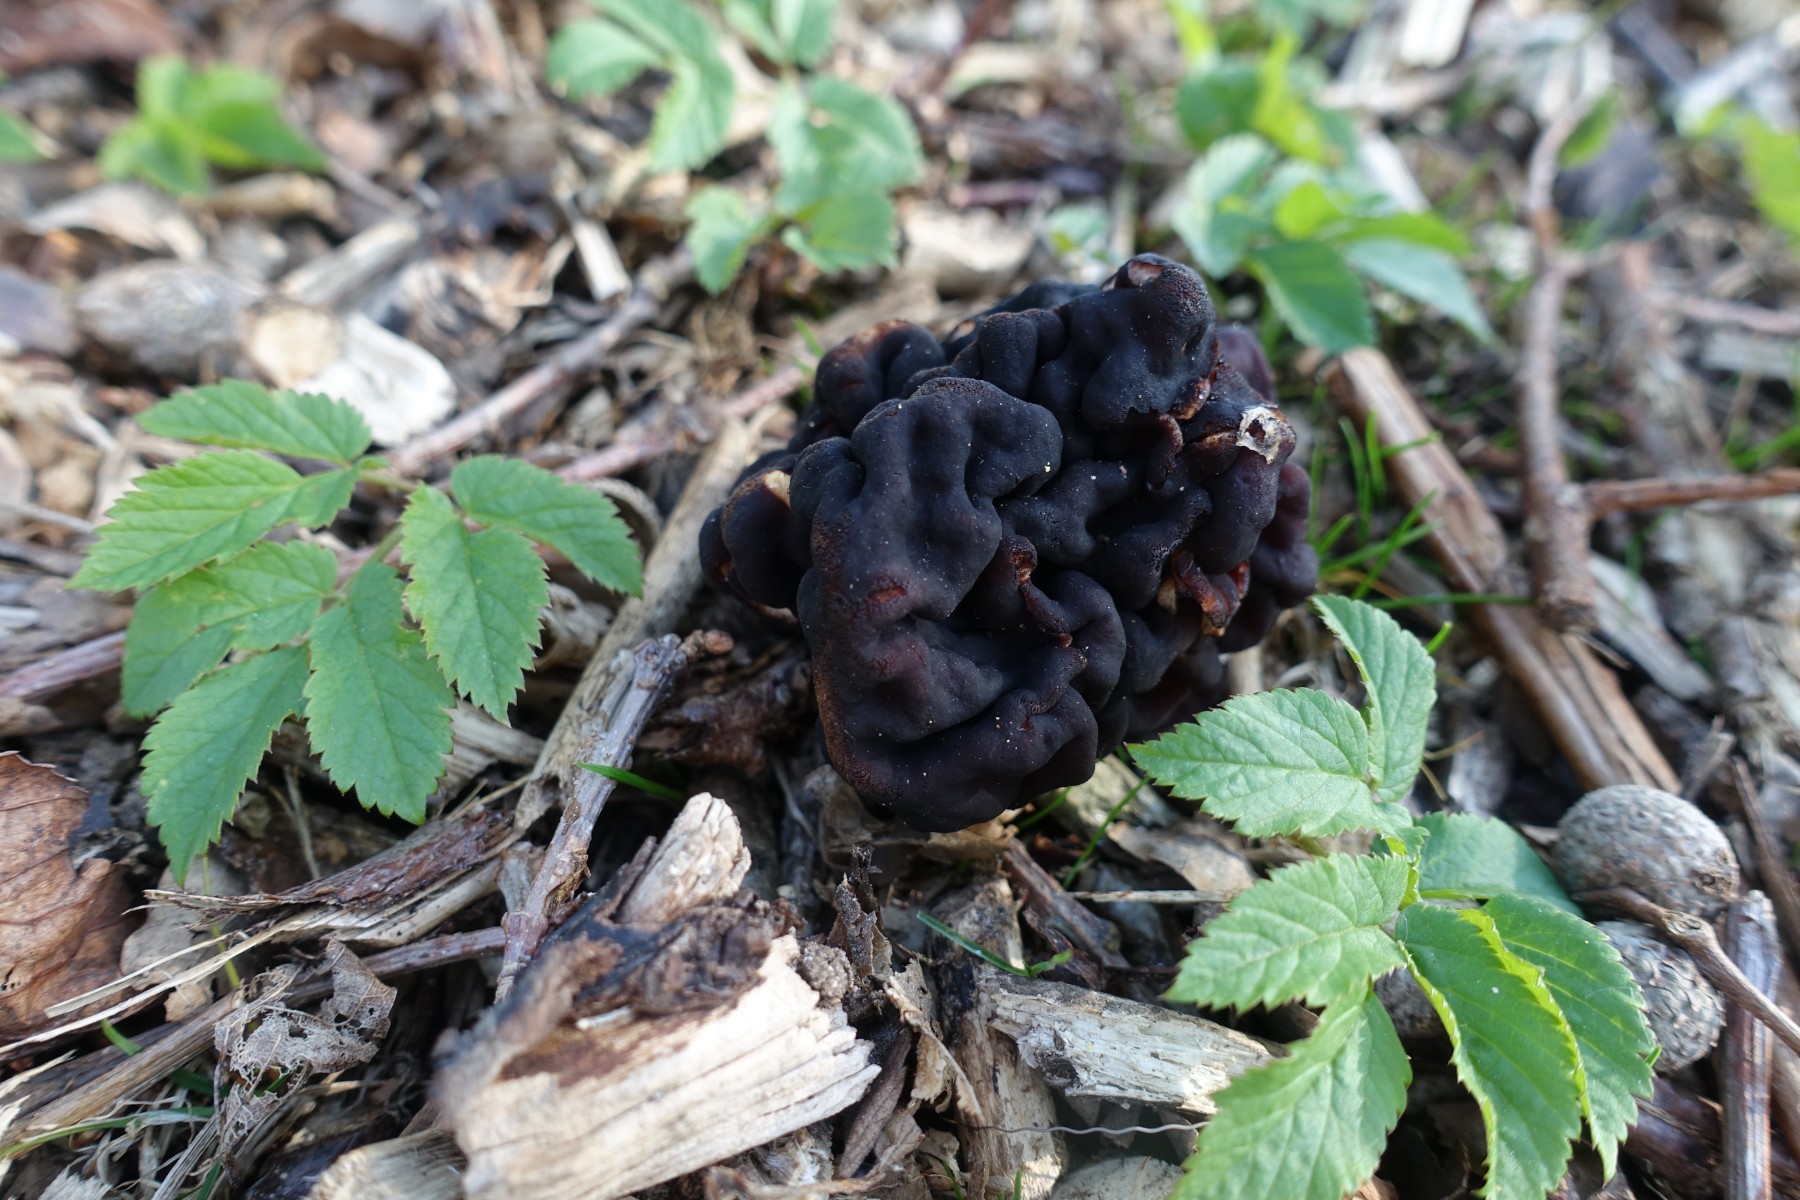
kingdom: Fungi
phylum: Ascomycota
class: Pezizomycetes
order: Pezizales
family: Discinaceae
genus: Gyromitra
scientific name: Gyromitra esculenta
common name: ægte stenmorkel
